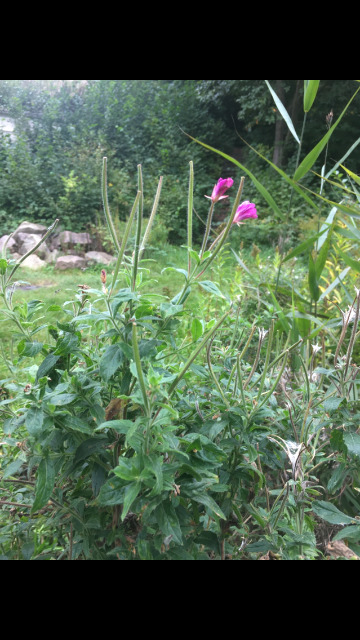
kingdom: Plantae
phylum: Tracheophyta
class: Magnoliopsida
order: Myrtales
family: Onagraceae
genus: Epilobium
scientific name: Epilobium hirsutum
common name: Lådden dueurt
